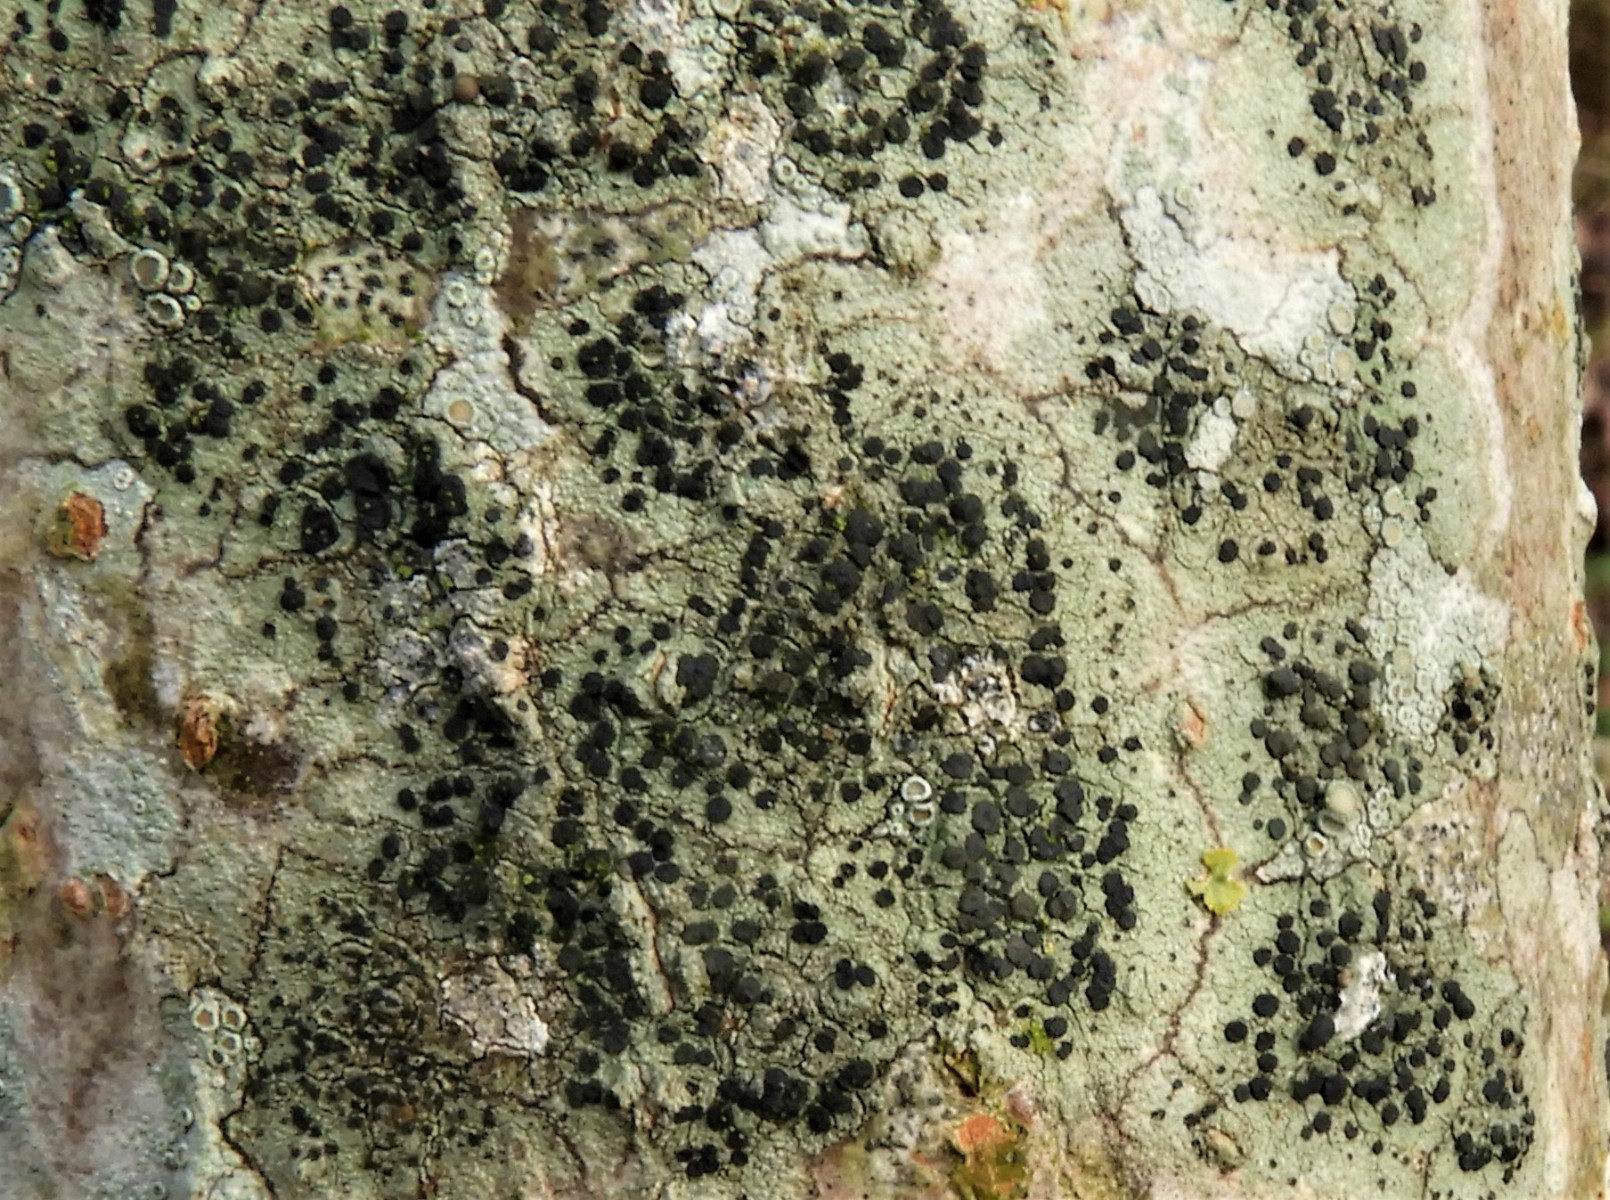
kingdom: Fungi
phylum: Ascomycota
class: Lecanoromycetes
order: Lecanorales
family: Lecanoraceae
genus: Lecidella
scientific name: Lecidella elaeochroma
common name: grågrøn skivelav
